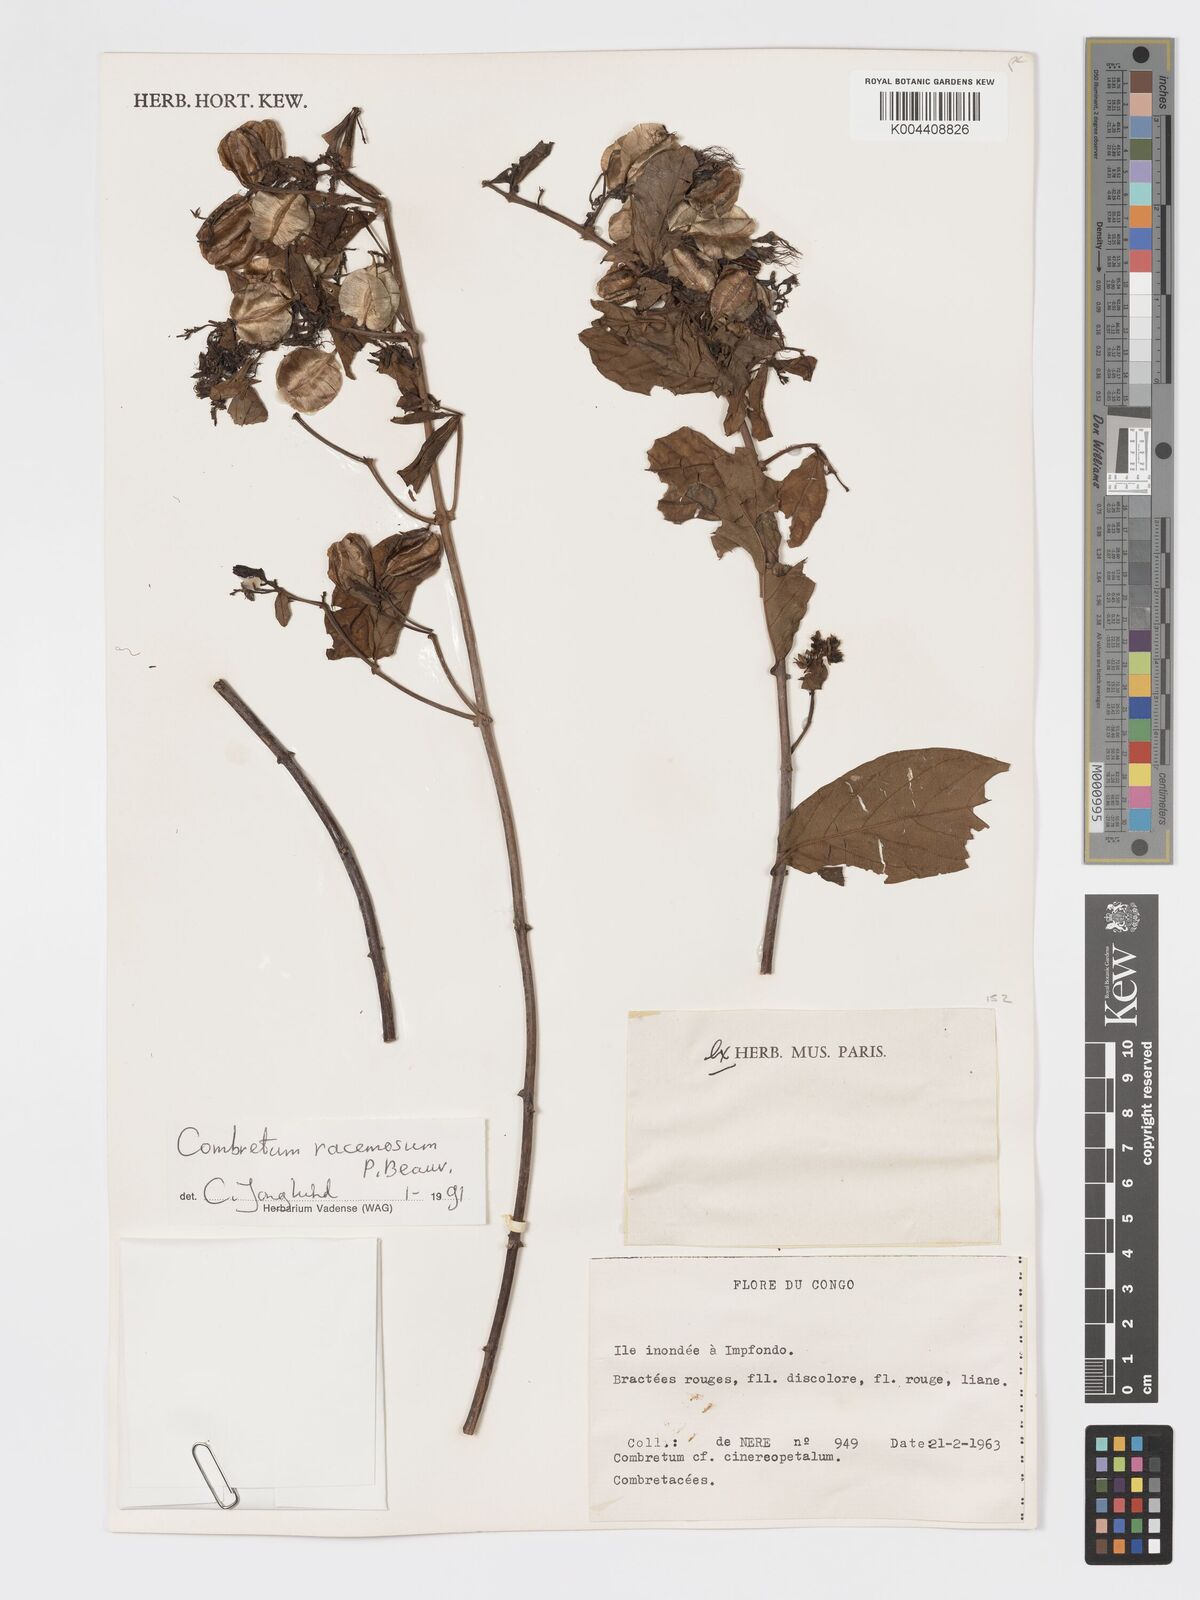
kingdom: Plantae
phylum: Tracheophyta
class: Magnoliopsida
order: Myrtales
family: Combretaceae
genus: Combretum
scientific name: Combretum racemosum
